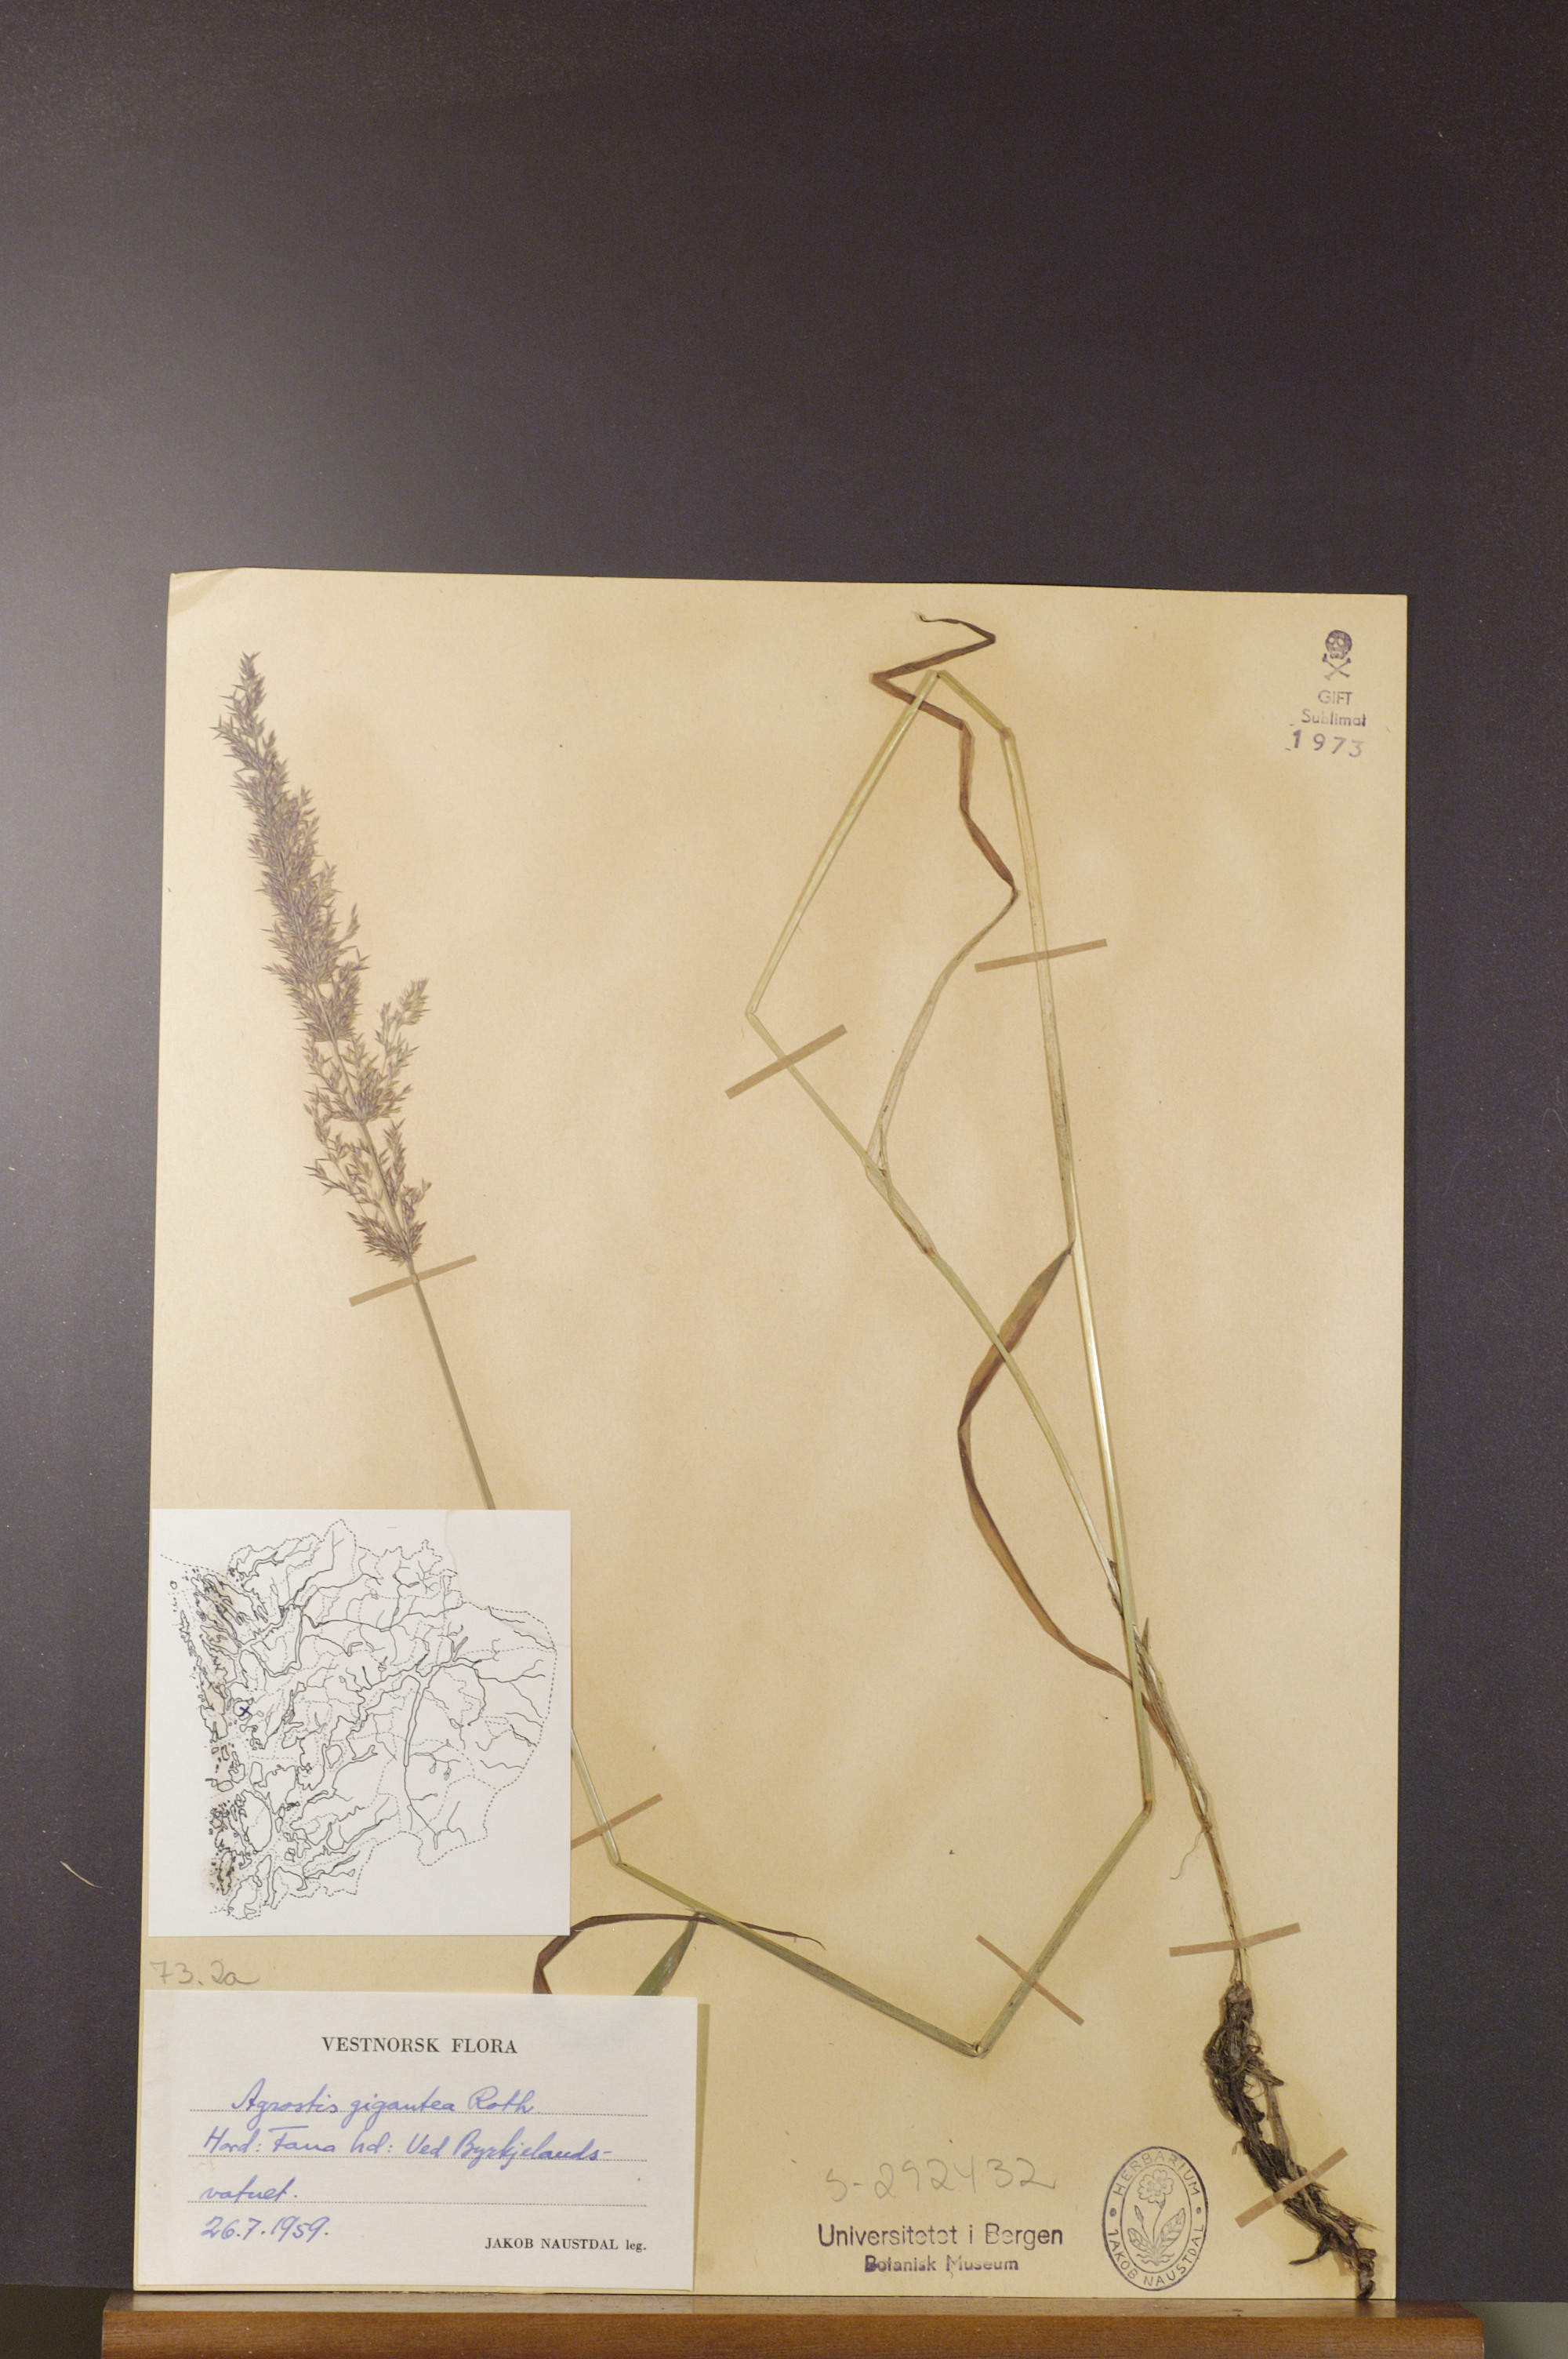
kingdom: Plantae
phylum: Tracheophyta
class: Liliopsida
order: Poales
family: Poaceae
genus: Agrostis
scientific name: Agrostis gigantea
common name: Black bent
